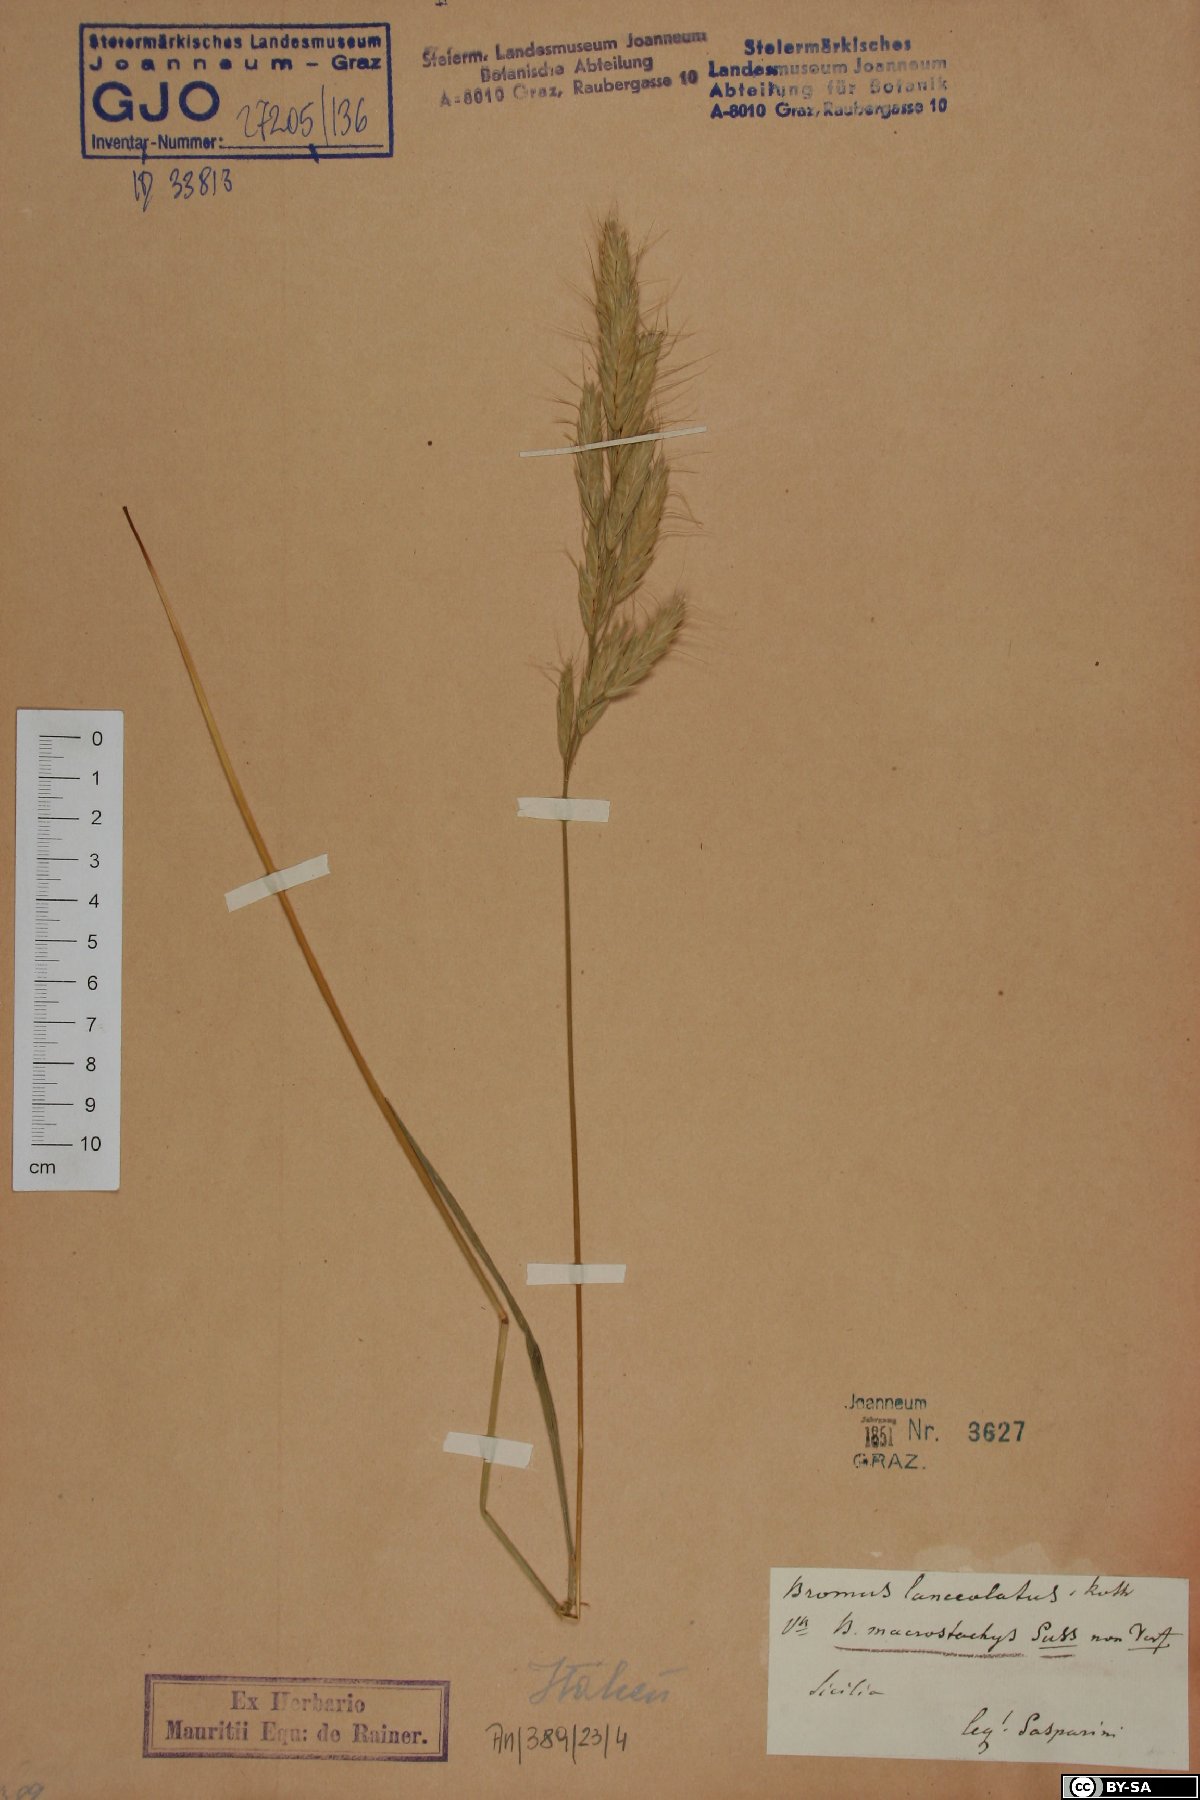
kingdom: Plantae
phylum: Tracheophyta
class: Liliopsida
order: Poales
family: Poaceae
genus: Bromus
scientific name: Bromus lanceolatus
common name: Mediterranean brome
